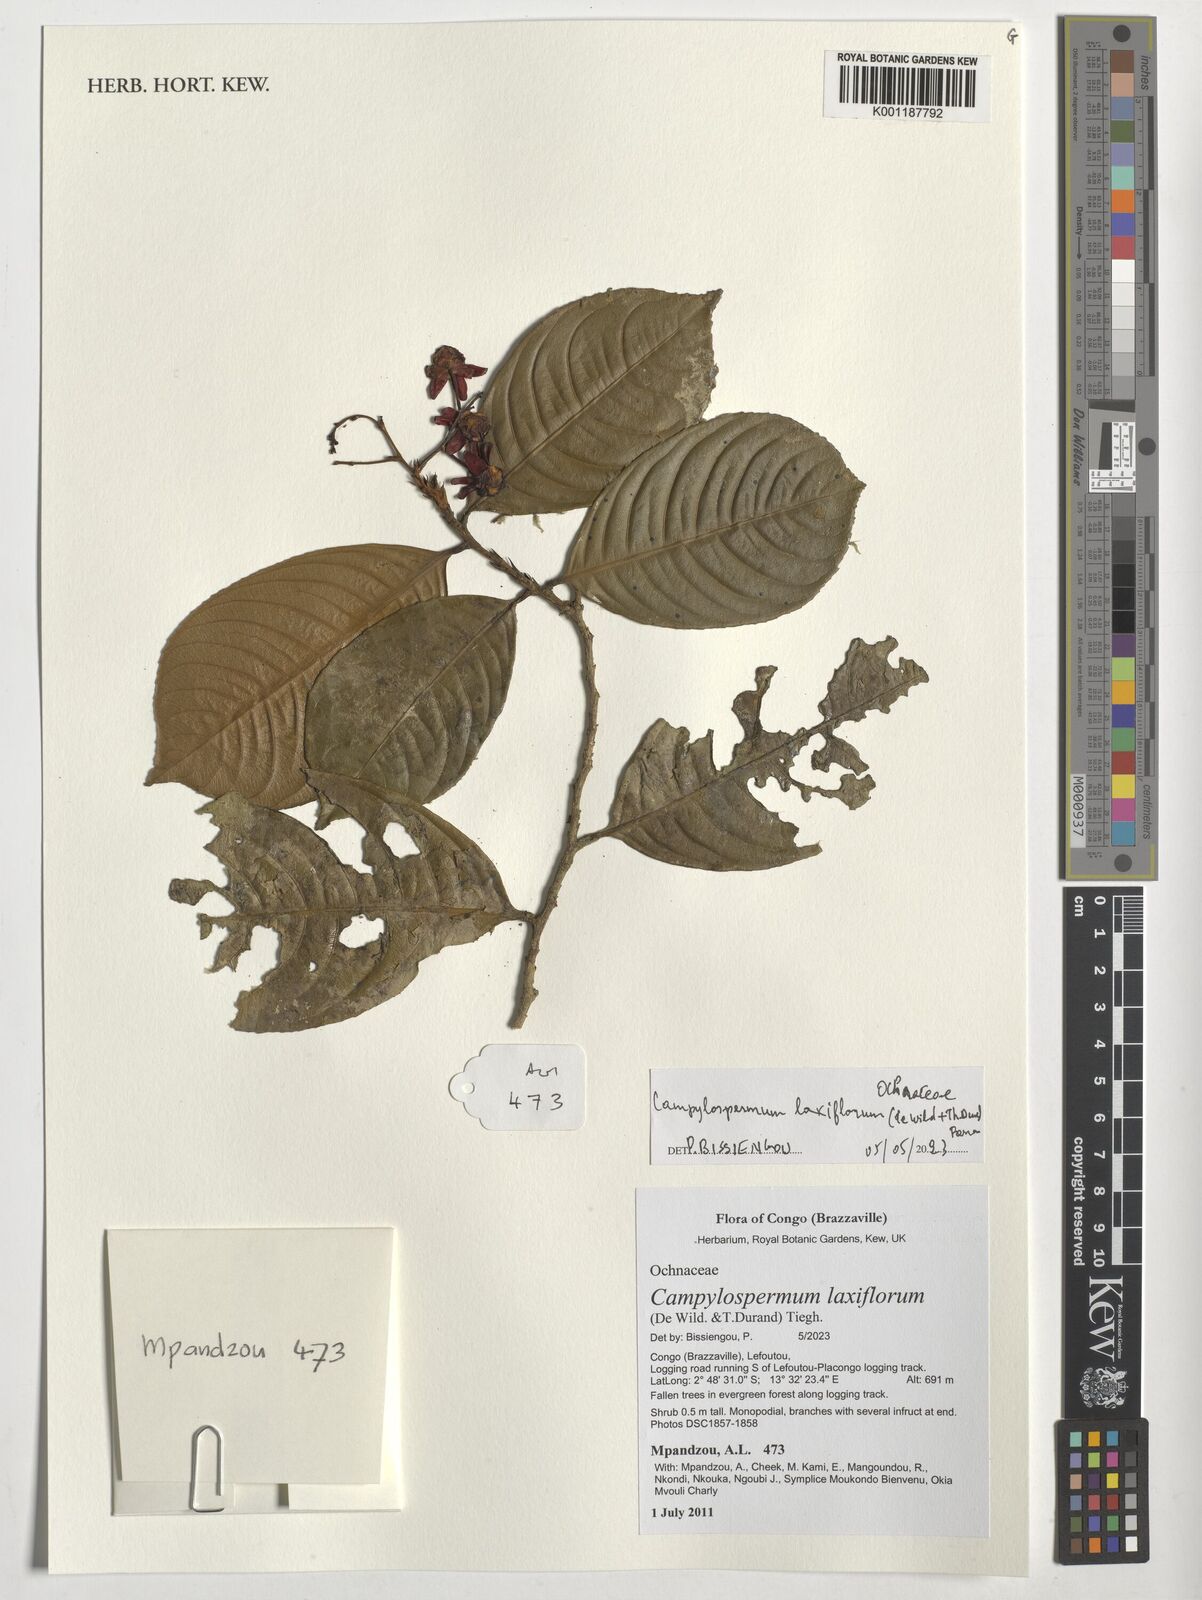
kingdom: Plantae
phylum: Tracheophyta
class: Magnoliopsida
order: Malpighiales
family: Ochnaceae
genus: Campylospermum
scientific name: Campylospermum laxiflorum
